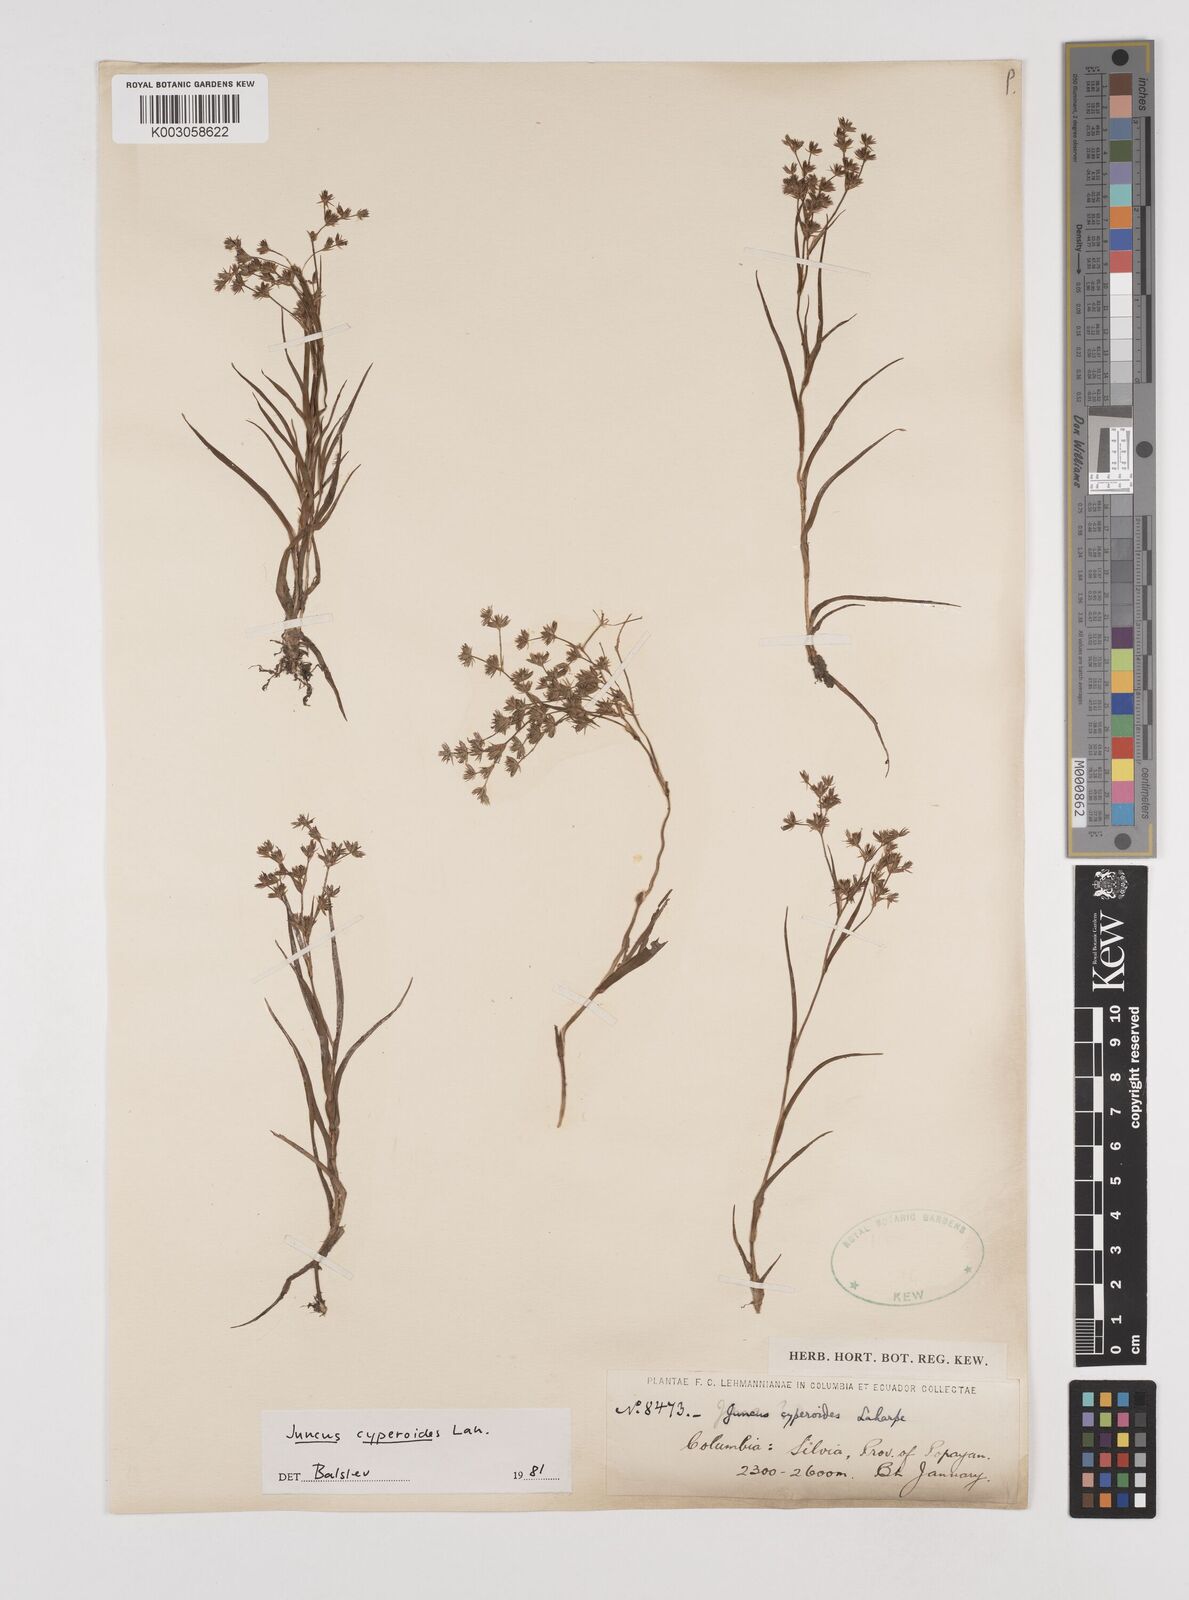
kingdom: Plantae
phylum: Tracheophyta
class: Liliopsida
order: Poales
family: Juncaceae
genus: Juncus
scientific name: Juncus cyperoides
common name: Forbestown rush
